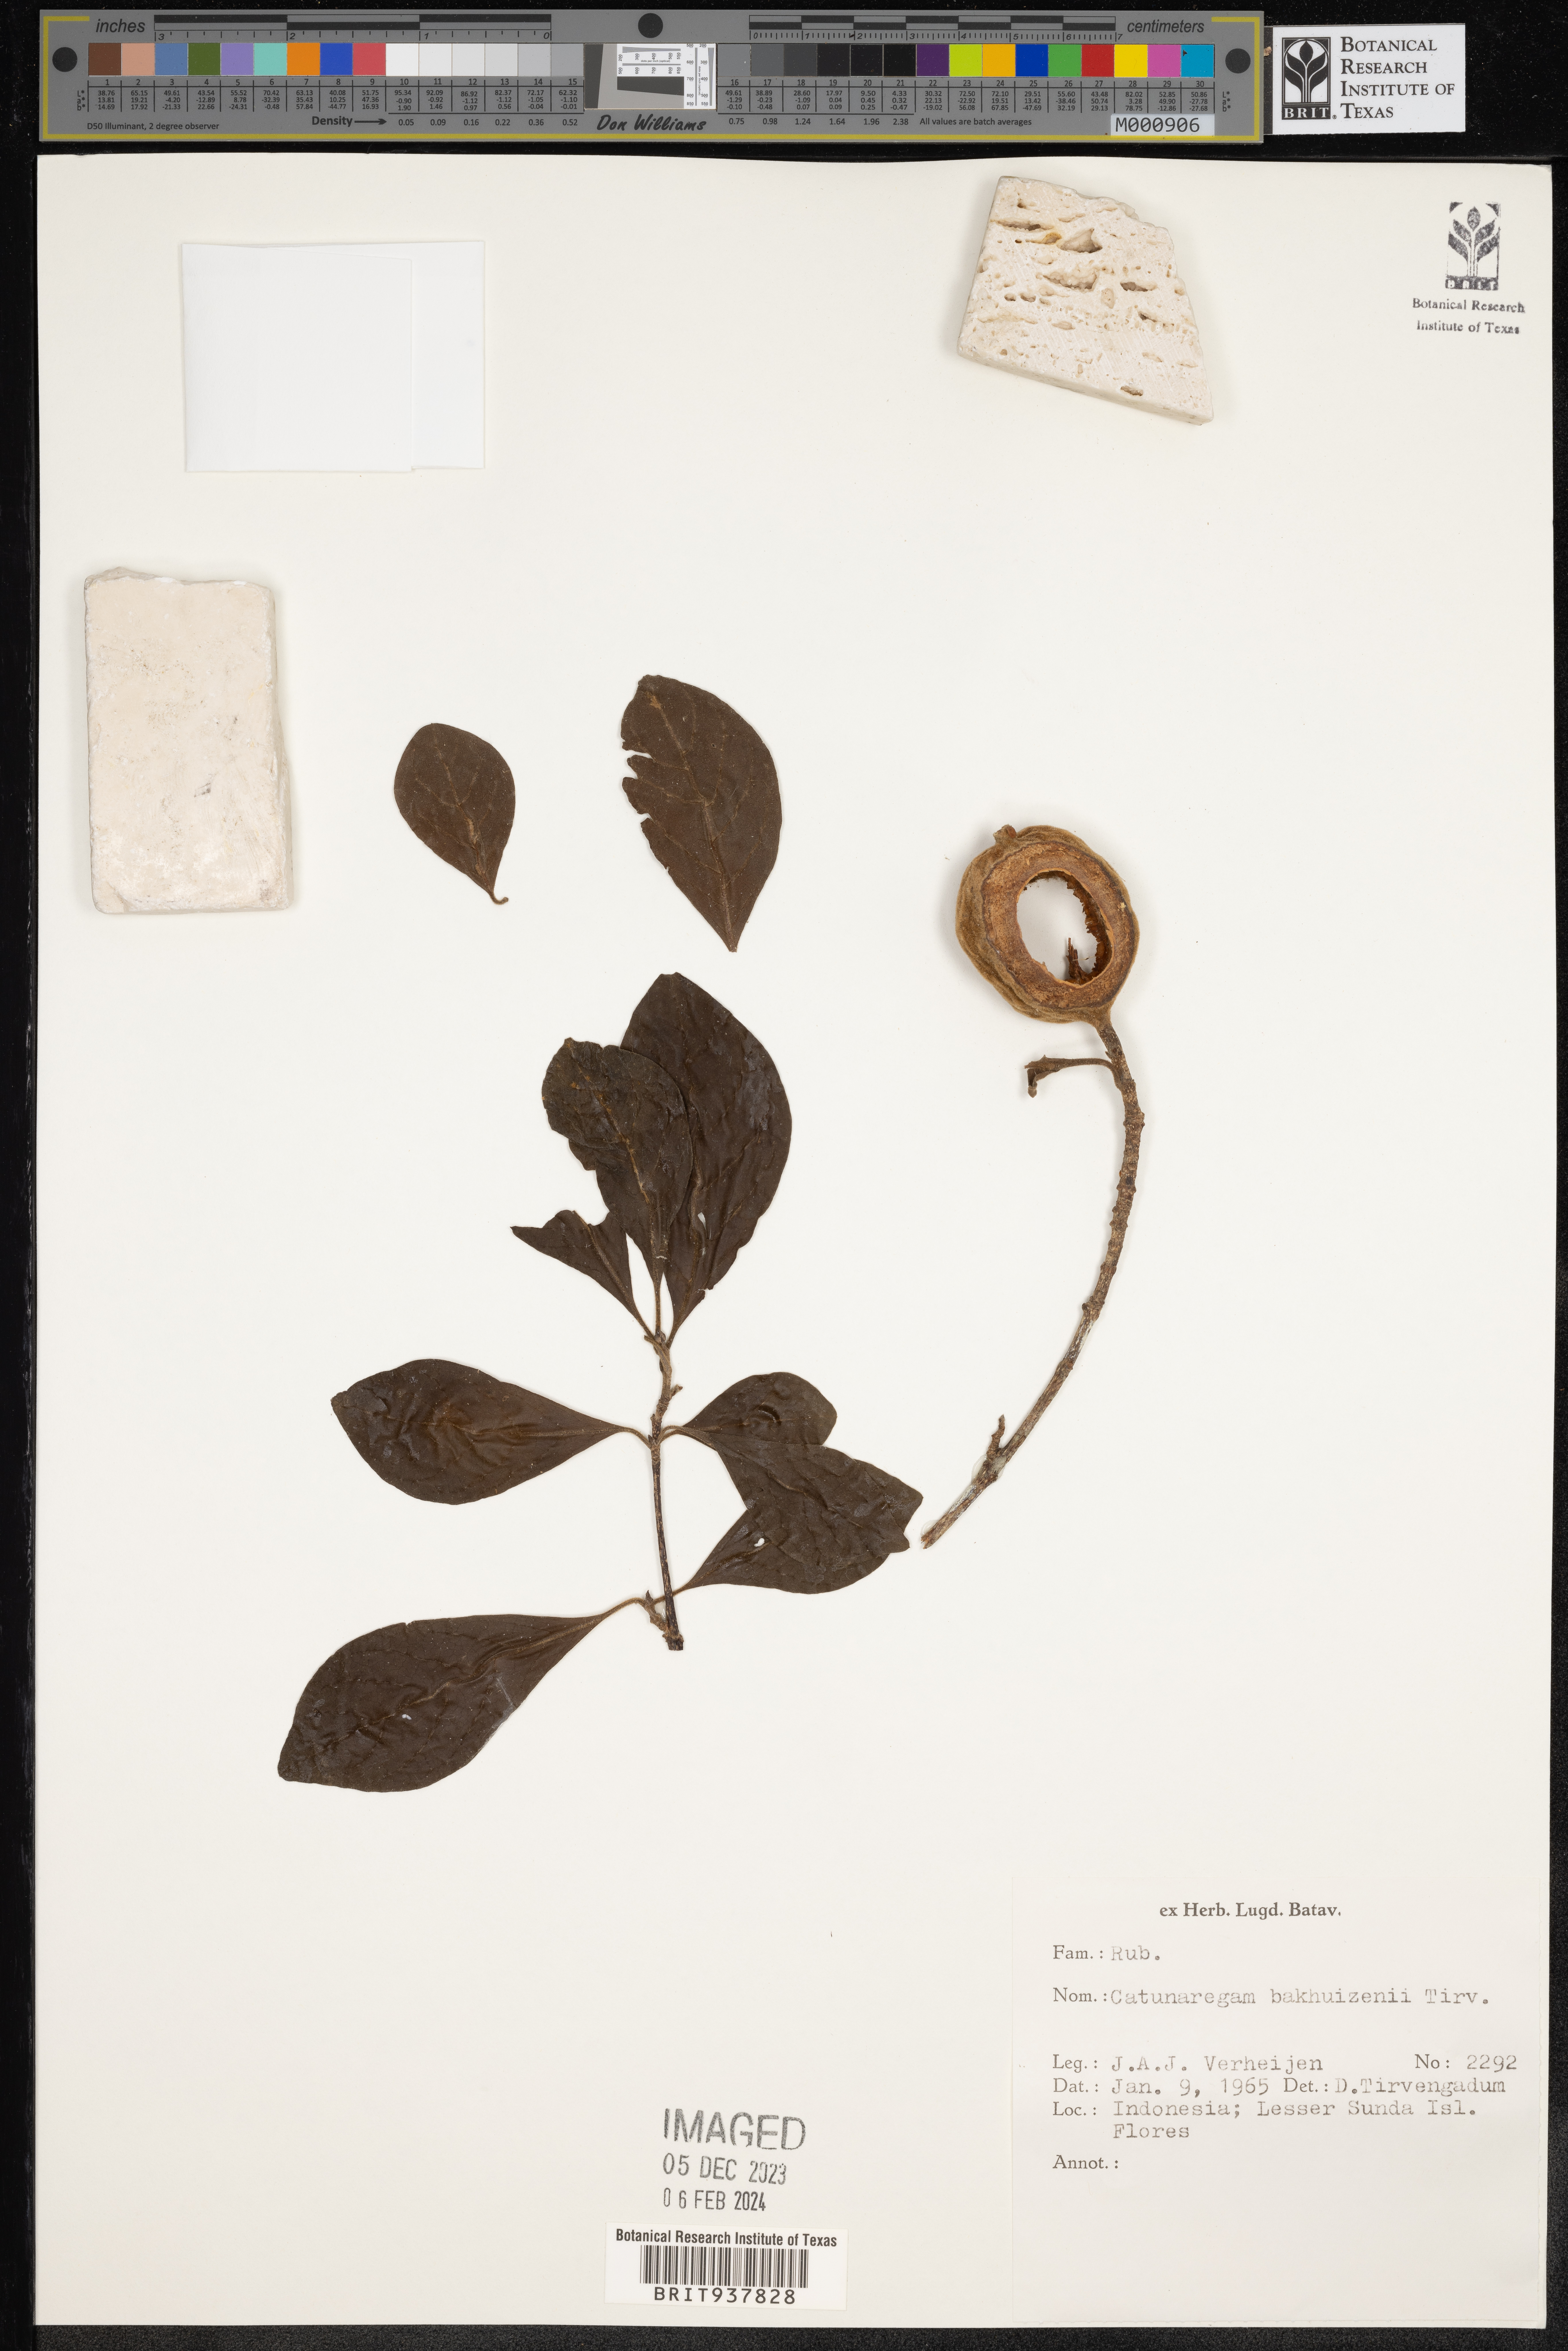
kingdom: Plantae
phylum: Tracheophyta
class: Magnoliopsida
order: Gentianales
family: Rubiaceae
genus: Catunaregam
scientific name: Catunaregam
